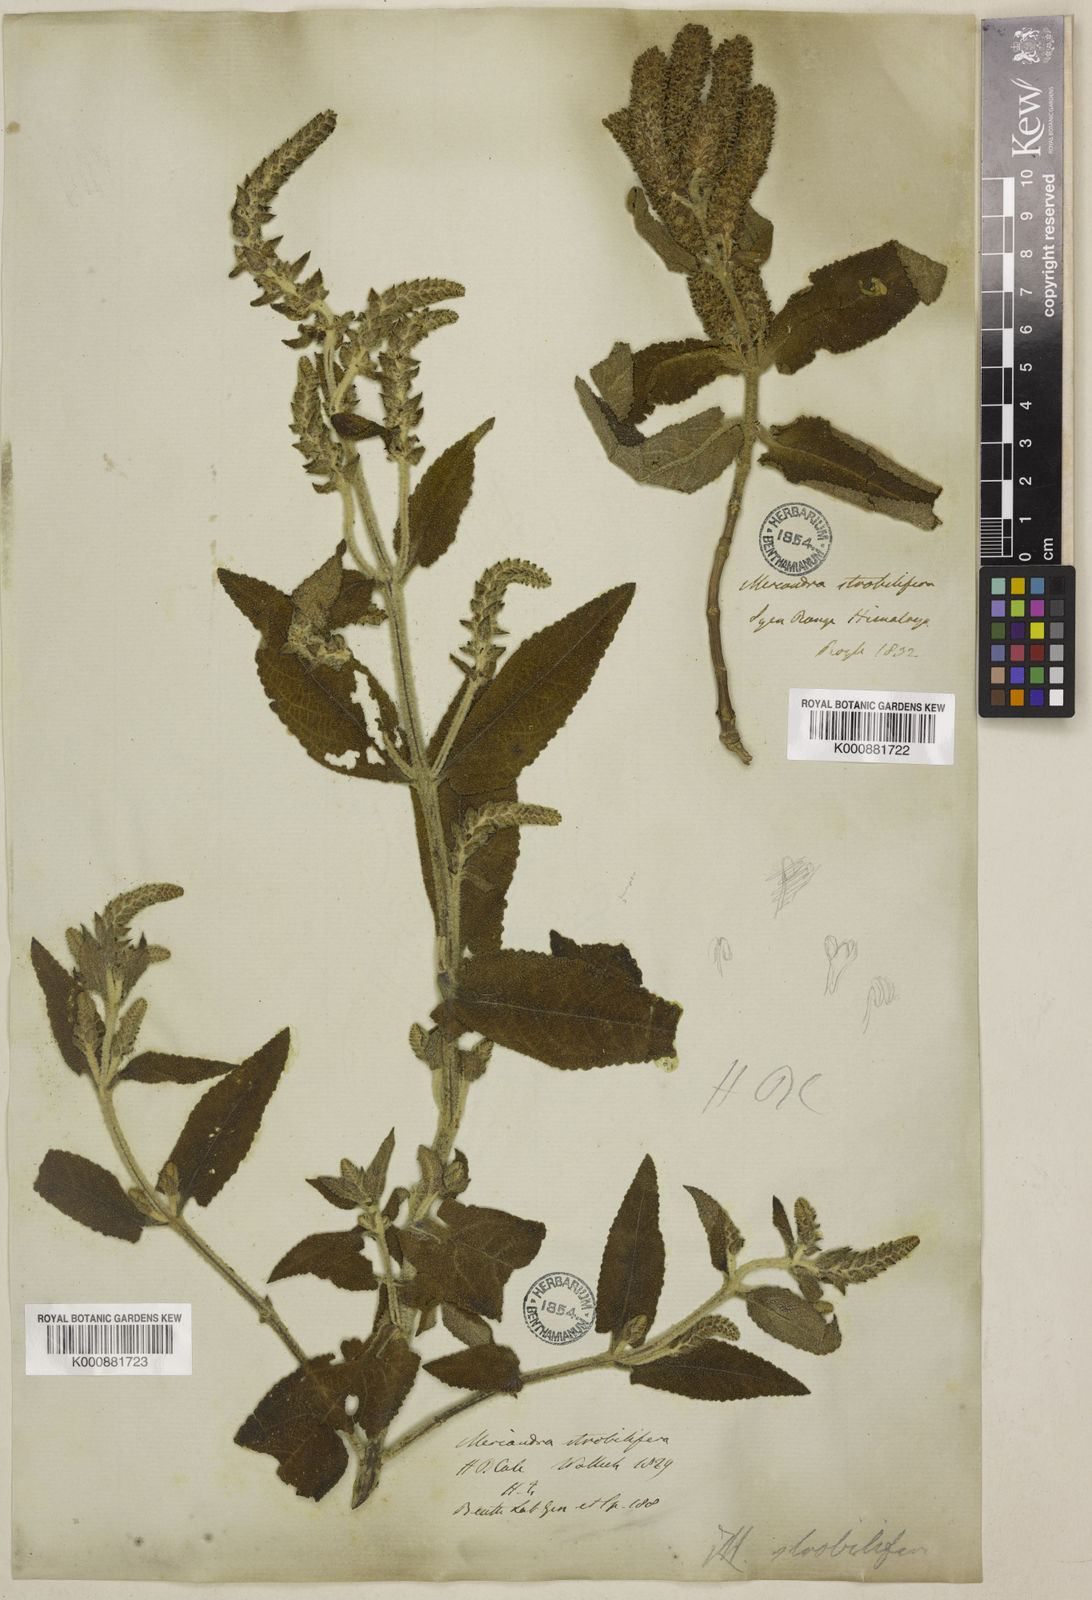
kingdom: Plantae
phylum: Tracheophyta
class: Magnoliopsida
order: Lamiales
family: Lamiaceae
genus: Salvia
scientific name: Salvia strobilifera
